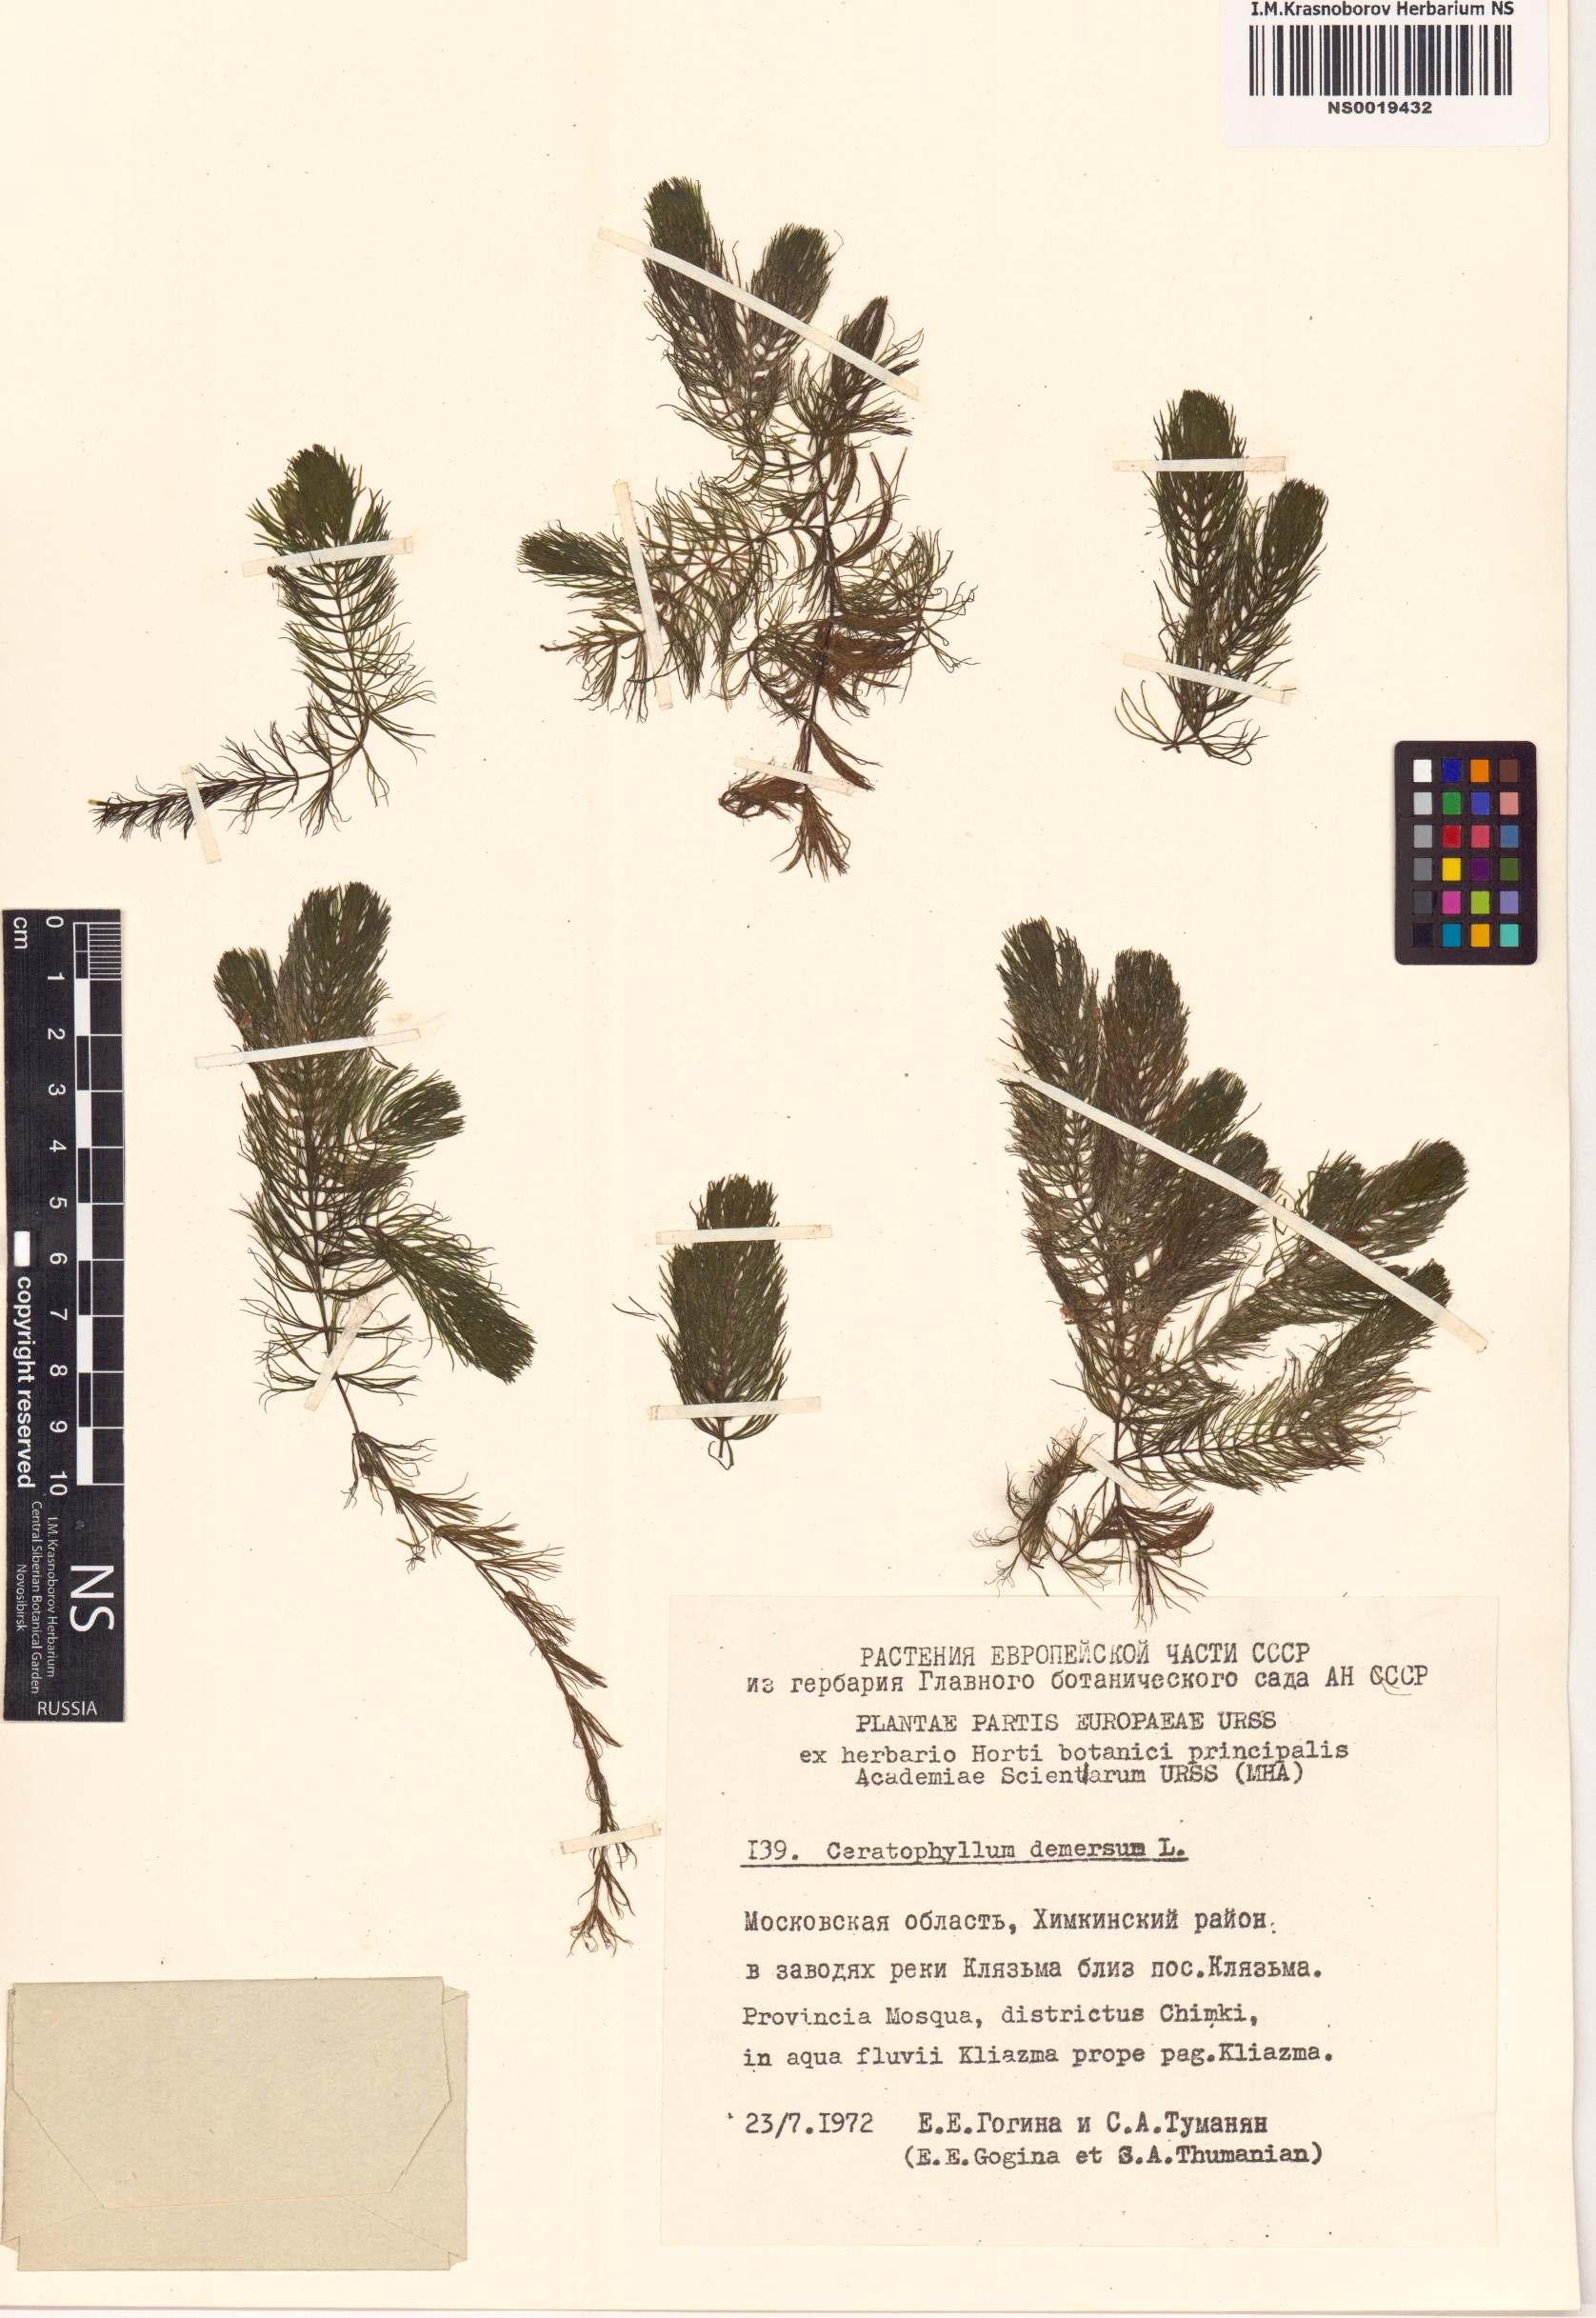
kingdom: Plantae
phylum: Tracheophyta
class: Magnoliopsida
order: Ceratophyllales
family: Ceratophyllaceae
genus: Ceratophyllum
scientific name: Ceratophyllum demersum
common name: Rigid hornwort
